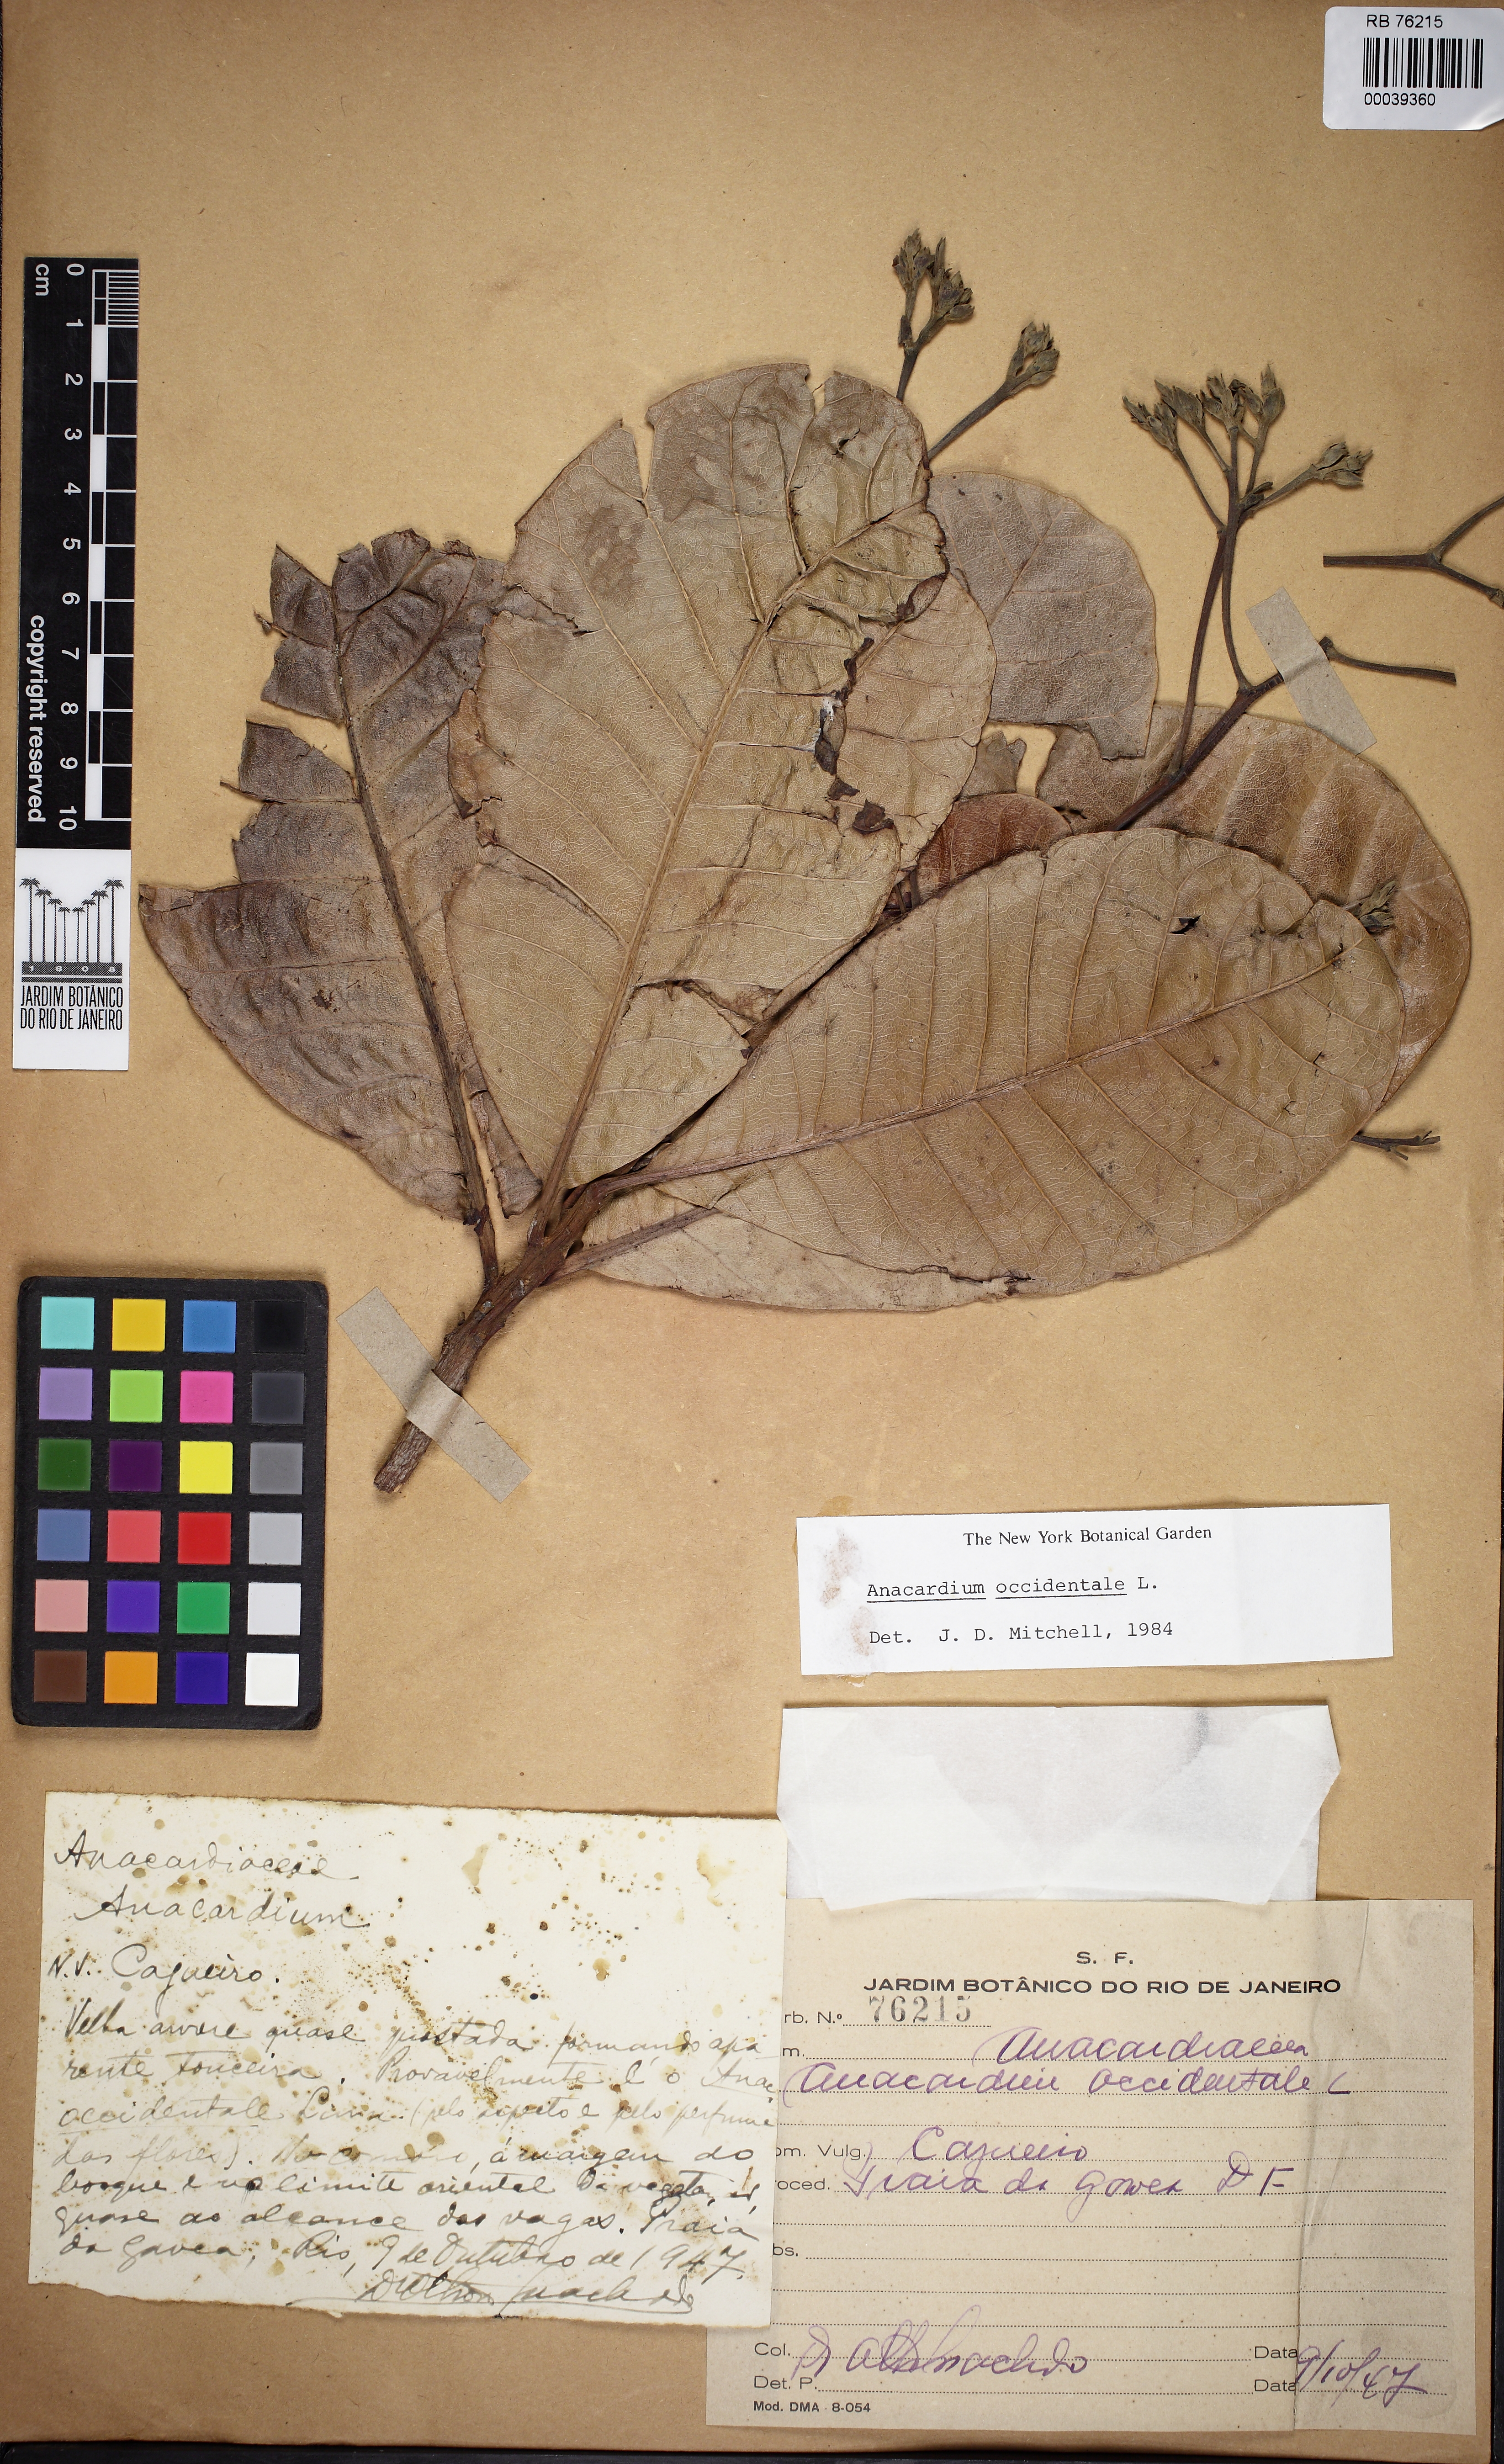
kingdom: Plantae
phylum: Tracheophyta
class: Magnoliopsida
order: Sapindales
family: Anacardiaceae
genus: Anacardium
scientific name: Anacardium occidentale
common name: Cashew
